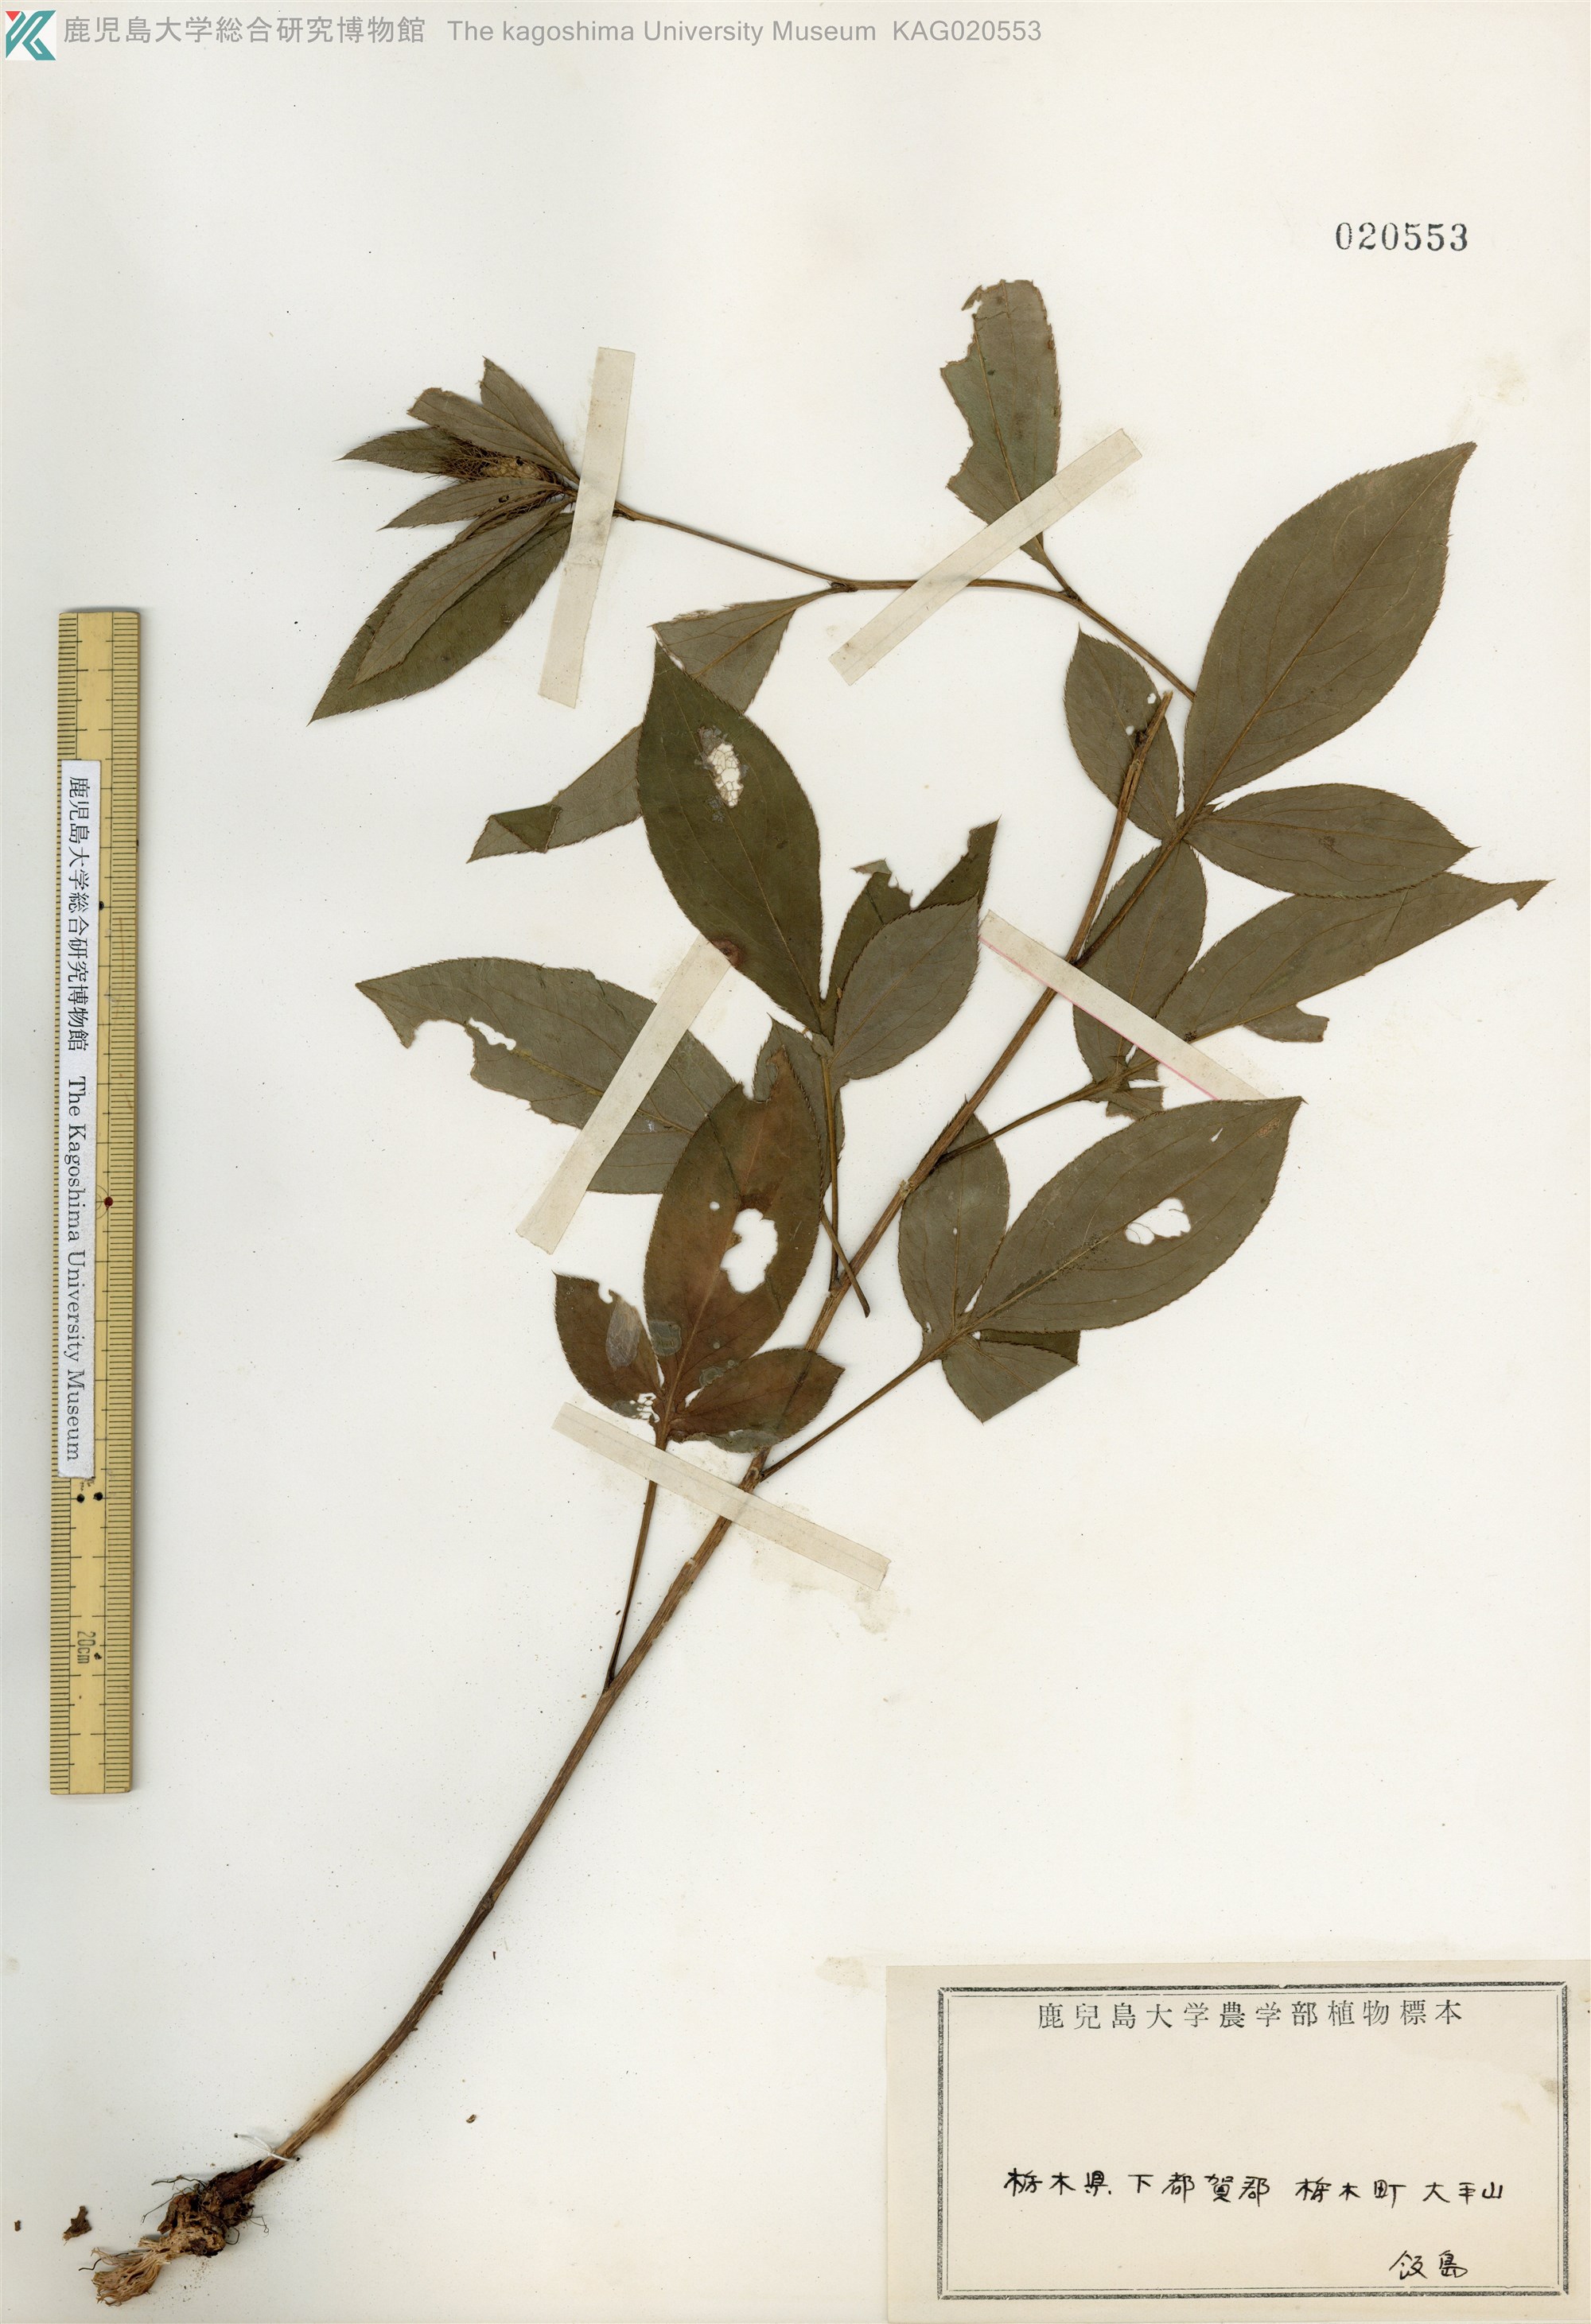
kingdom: Plantae
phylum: Tracheophyta
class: Magnoliopsida
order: Asterales
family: Asteraceae
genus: Atractylodes
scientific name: Atractylodes lancea
